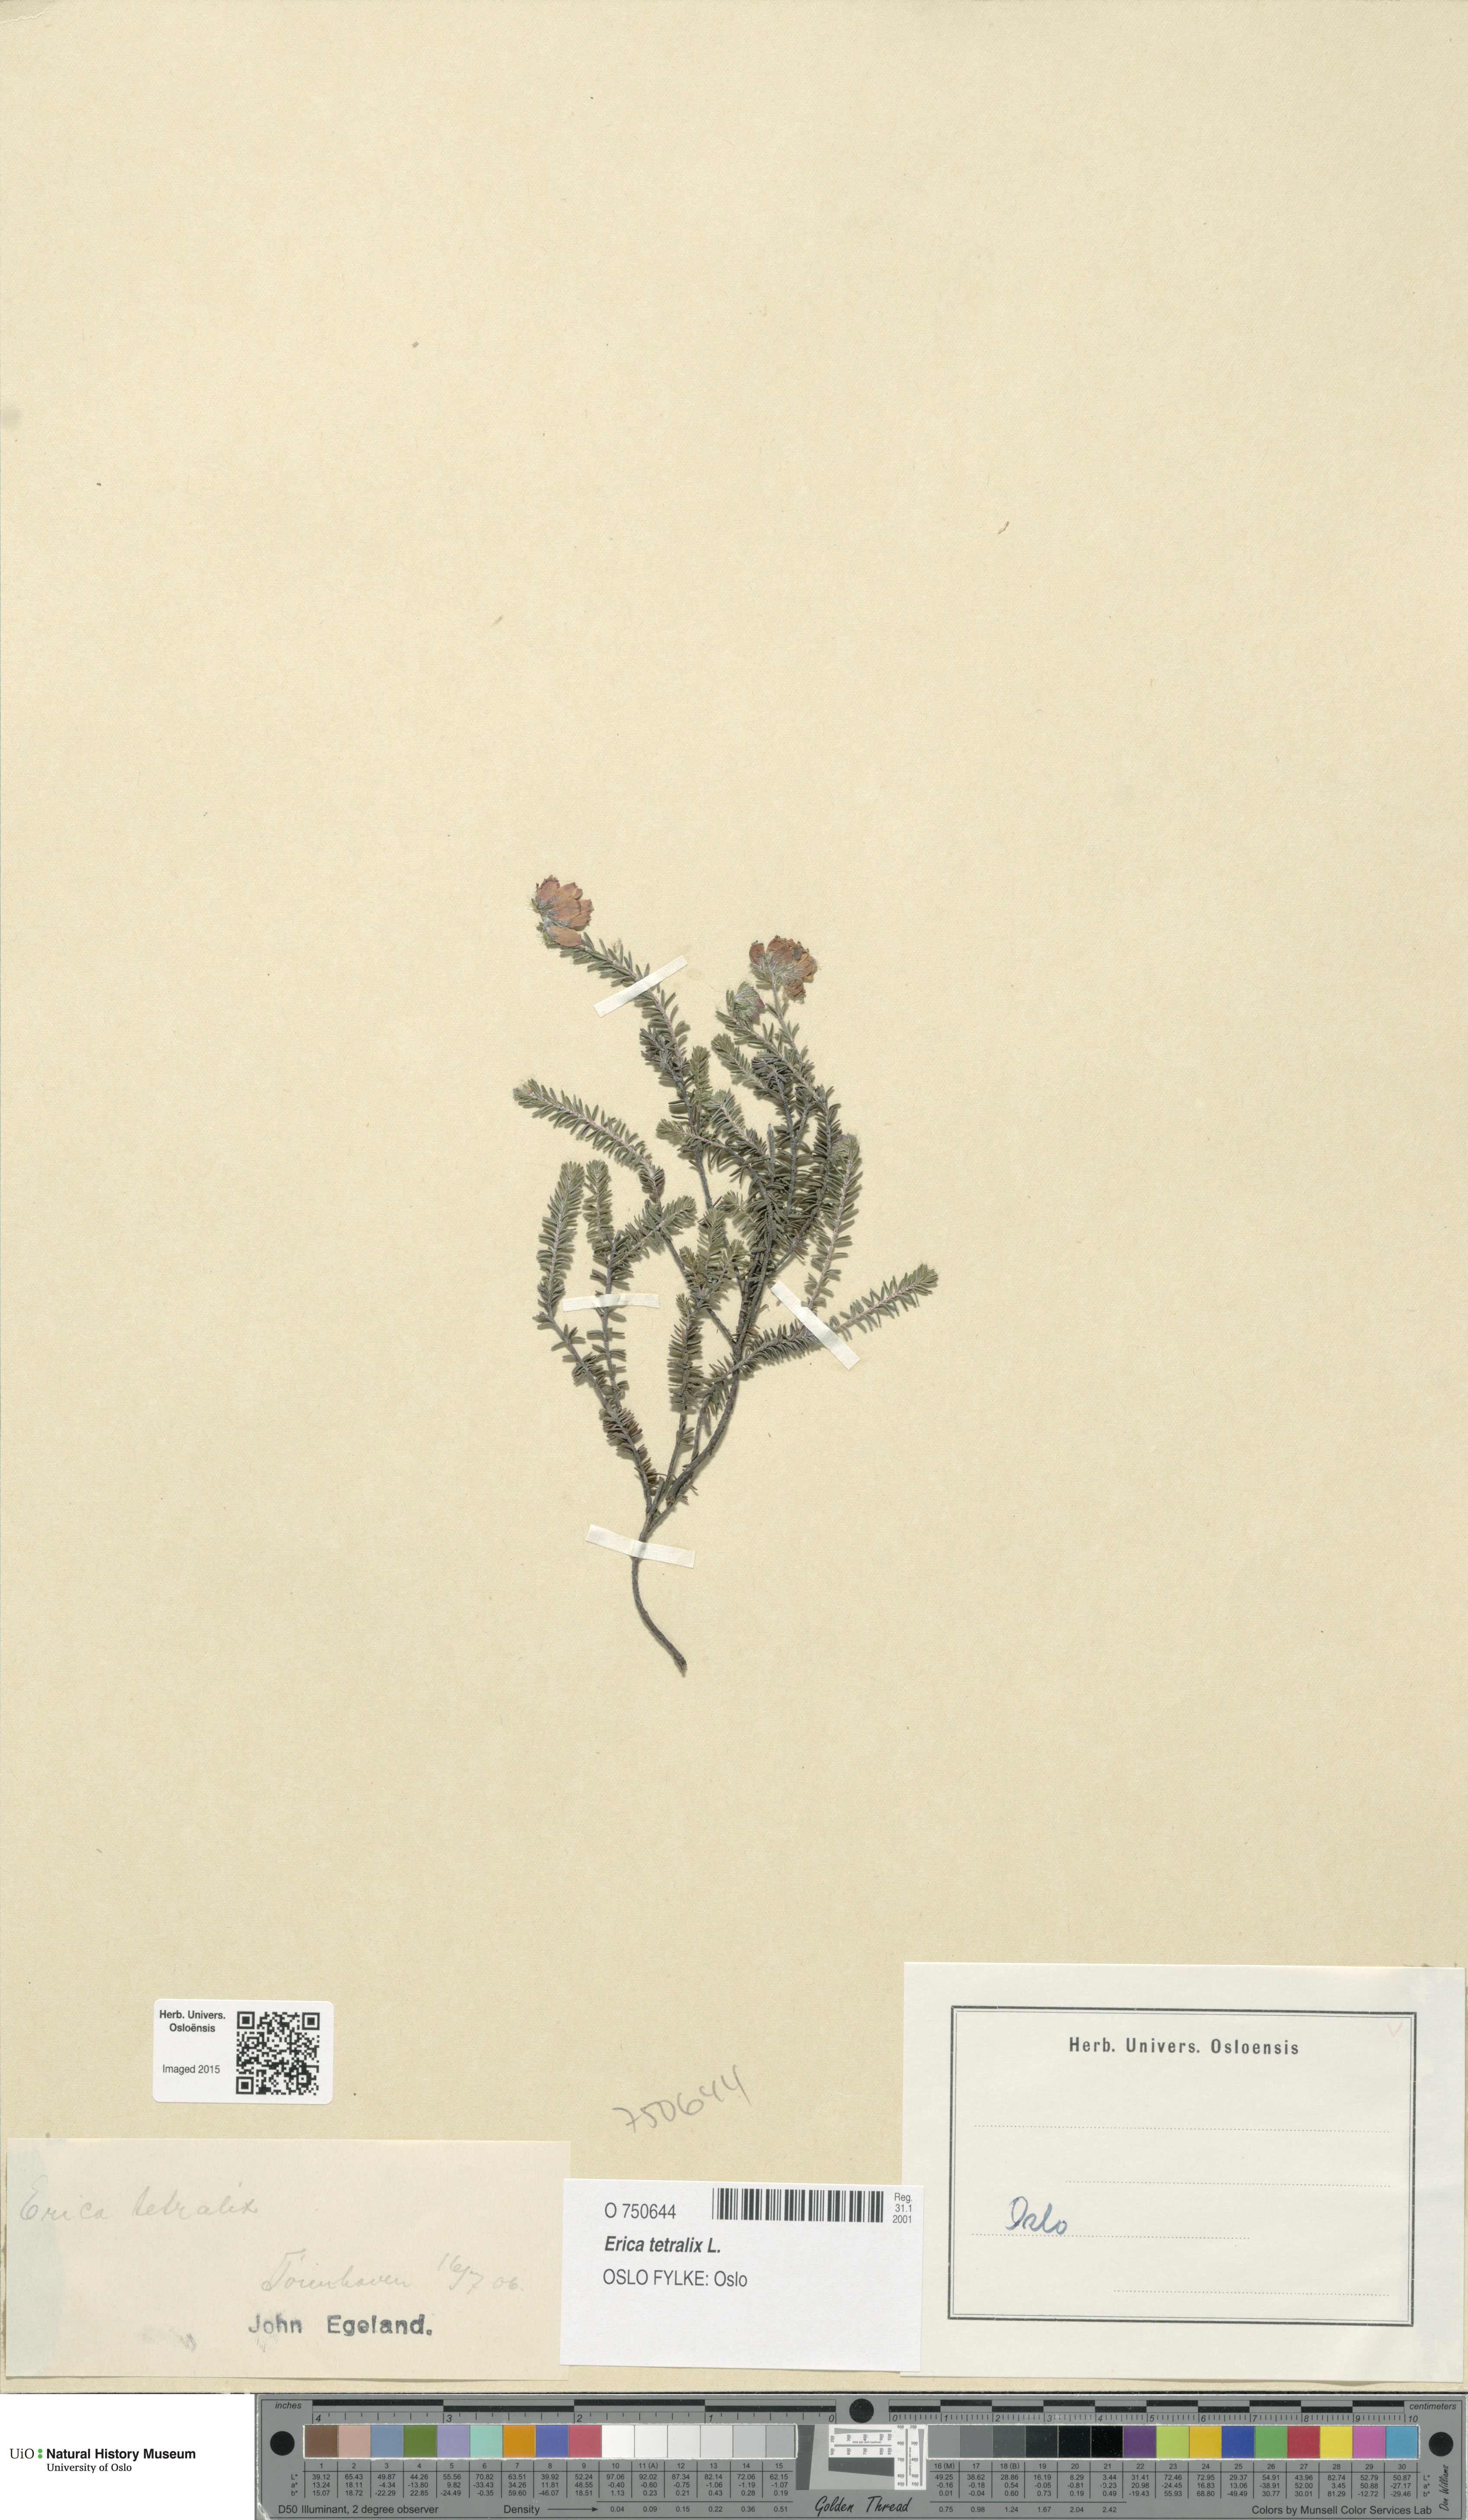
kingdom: Plantae
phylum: Tracheophyta
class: Magnoliopsida
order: Ericales
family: Ericaceae
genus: Erica
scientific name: Erica tetralix
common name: Cross-leaved heath
